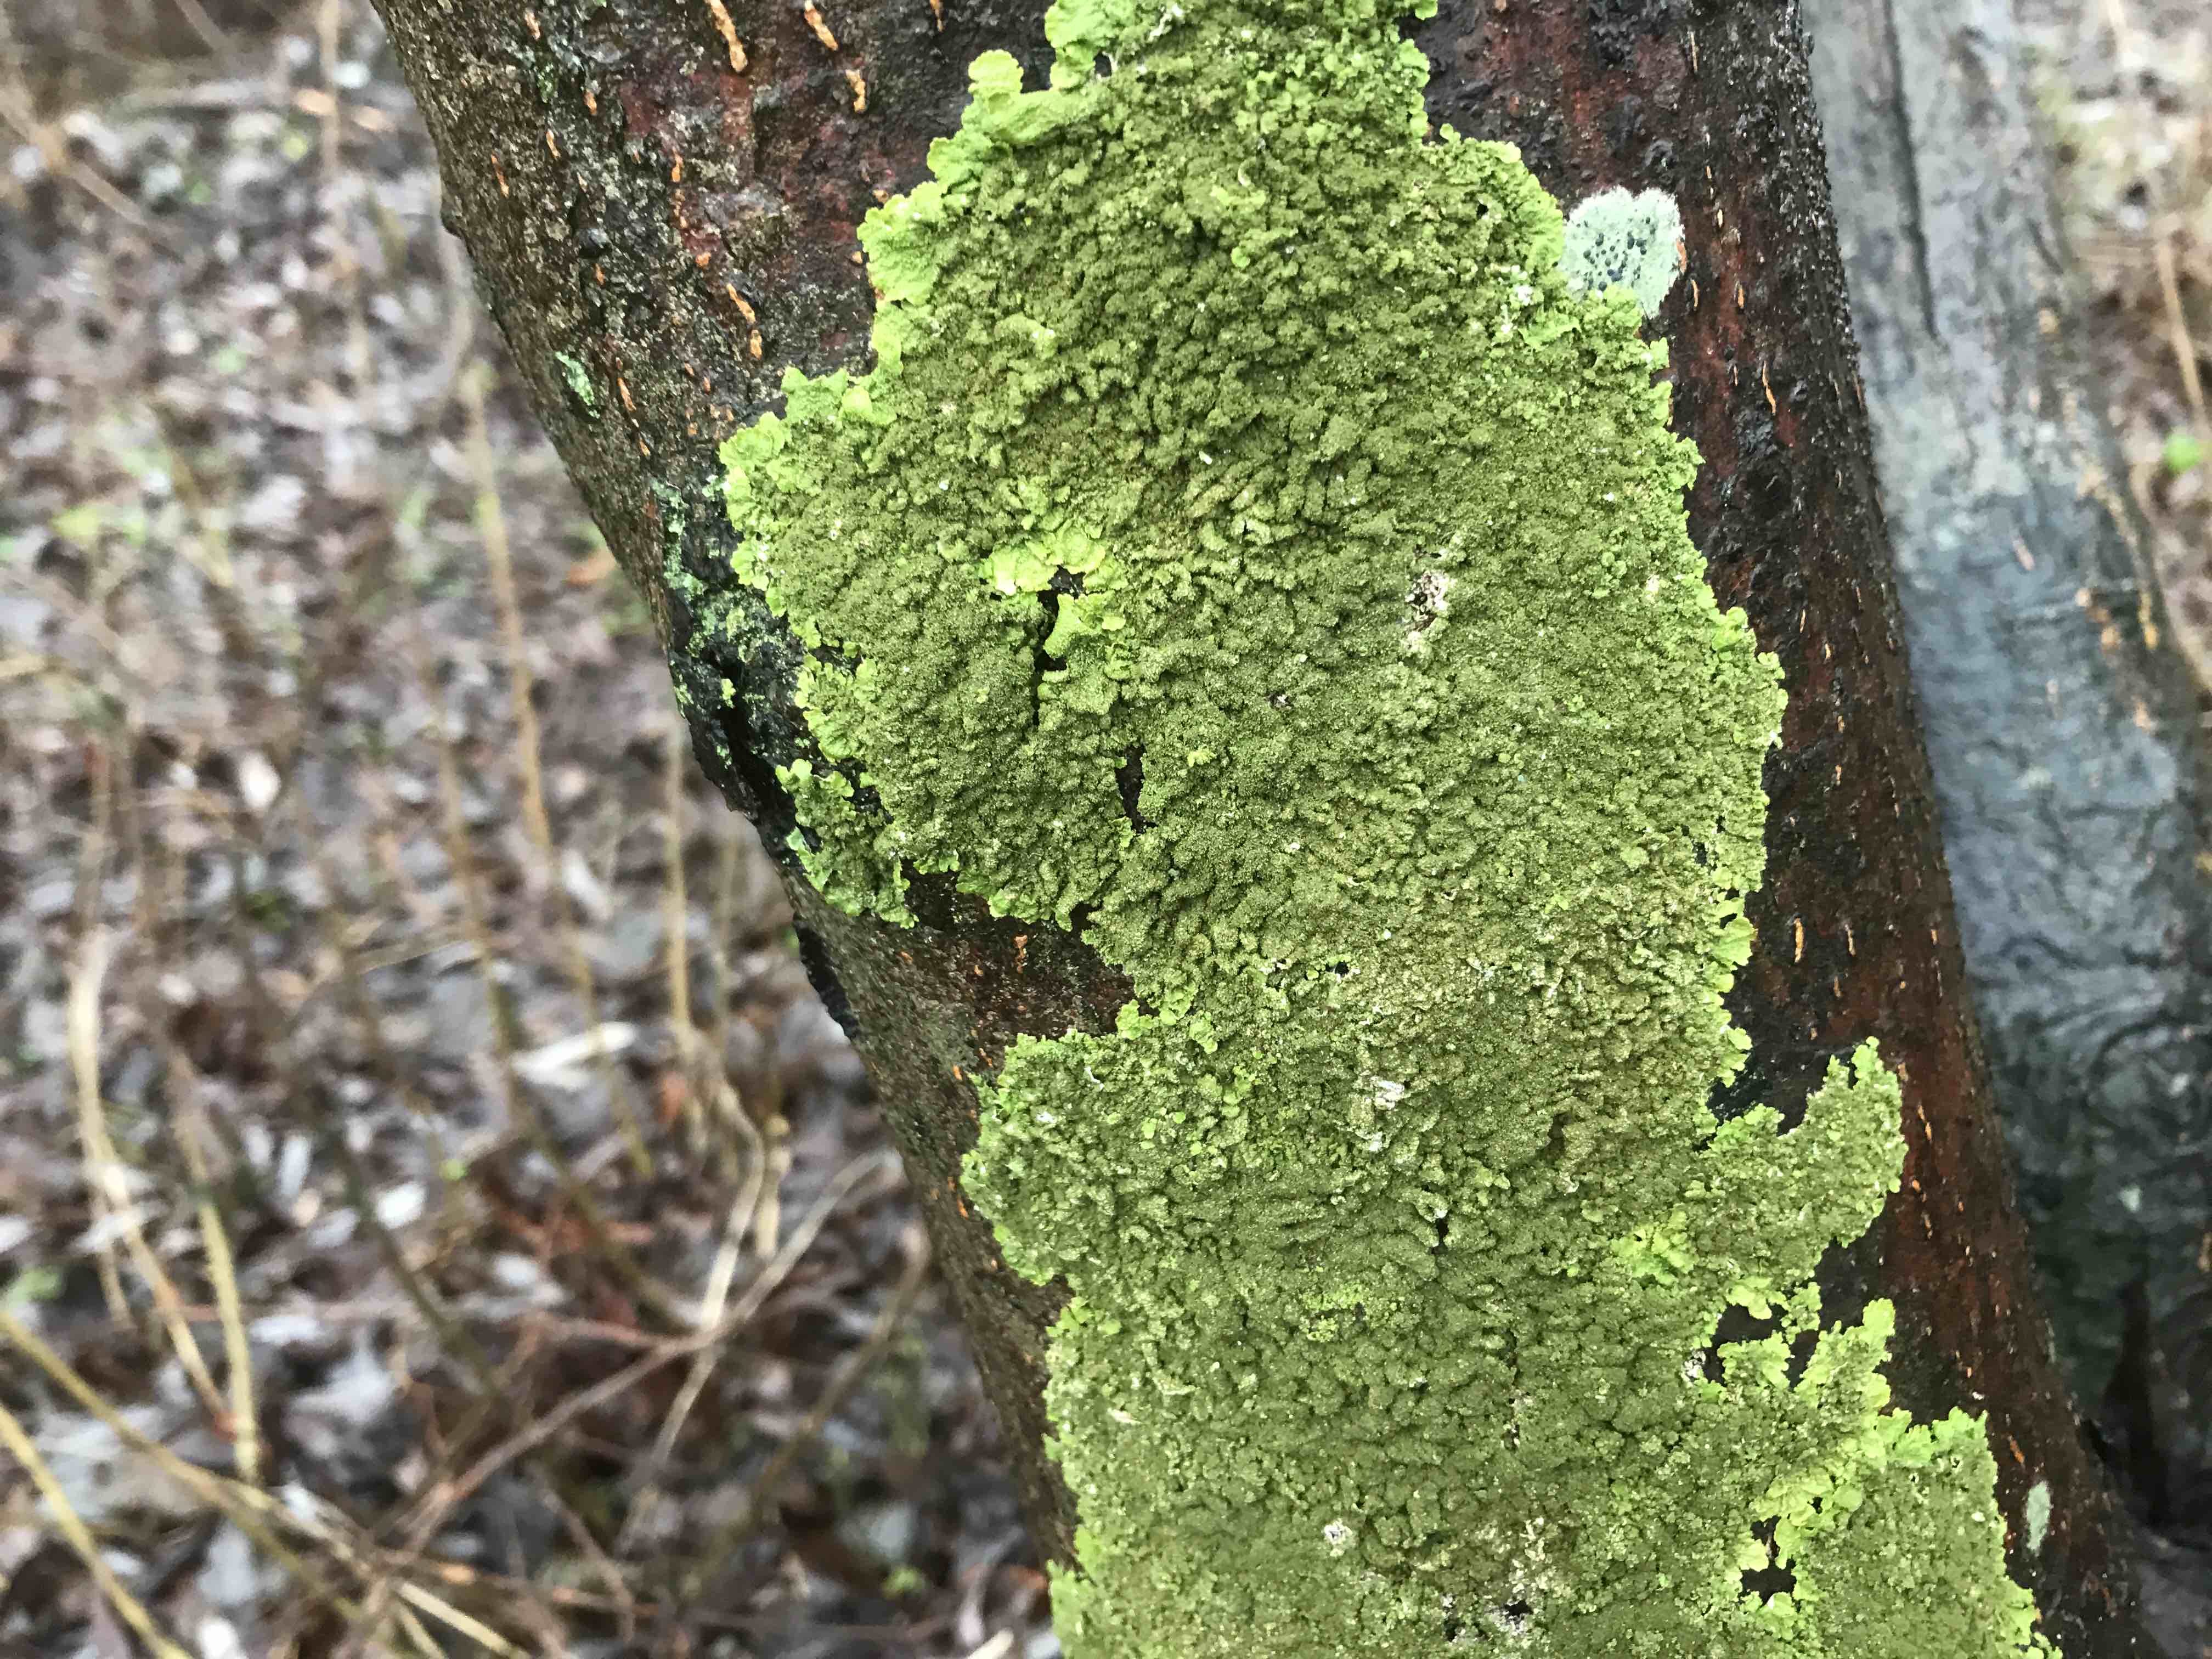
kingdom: Fungi
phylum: Ascomycota
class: Lecanoromycetes
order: Lecanorales
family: Parmeliaceae
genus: Melanelixia
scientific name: Melanelixia glabratula
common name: glinsende skållav
